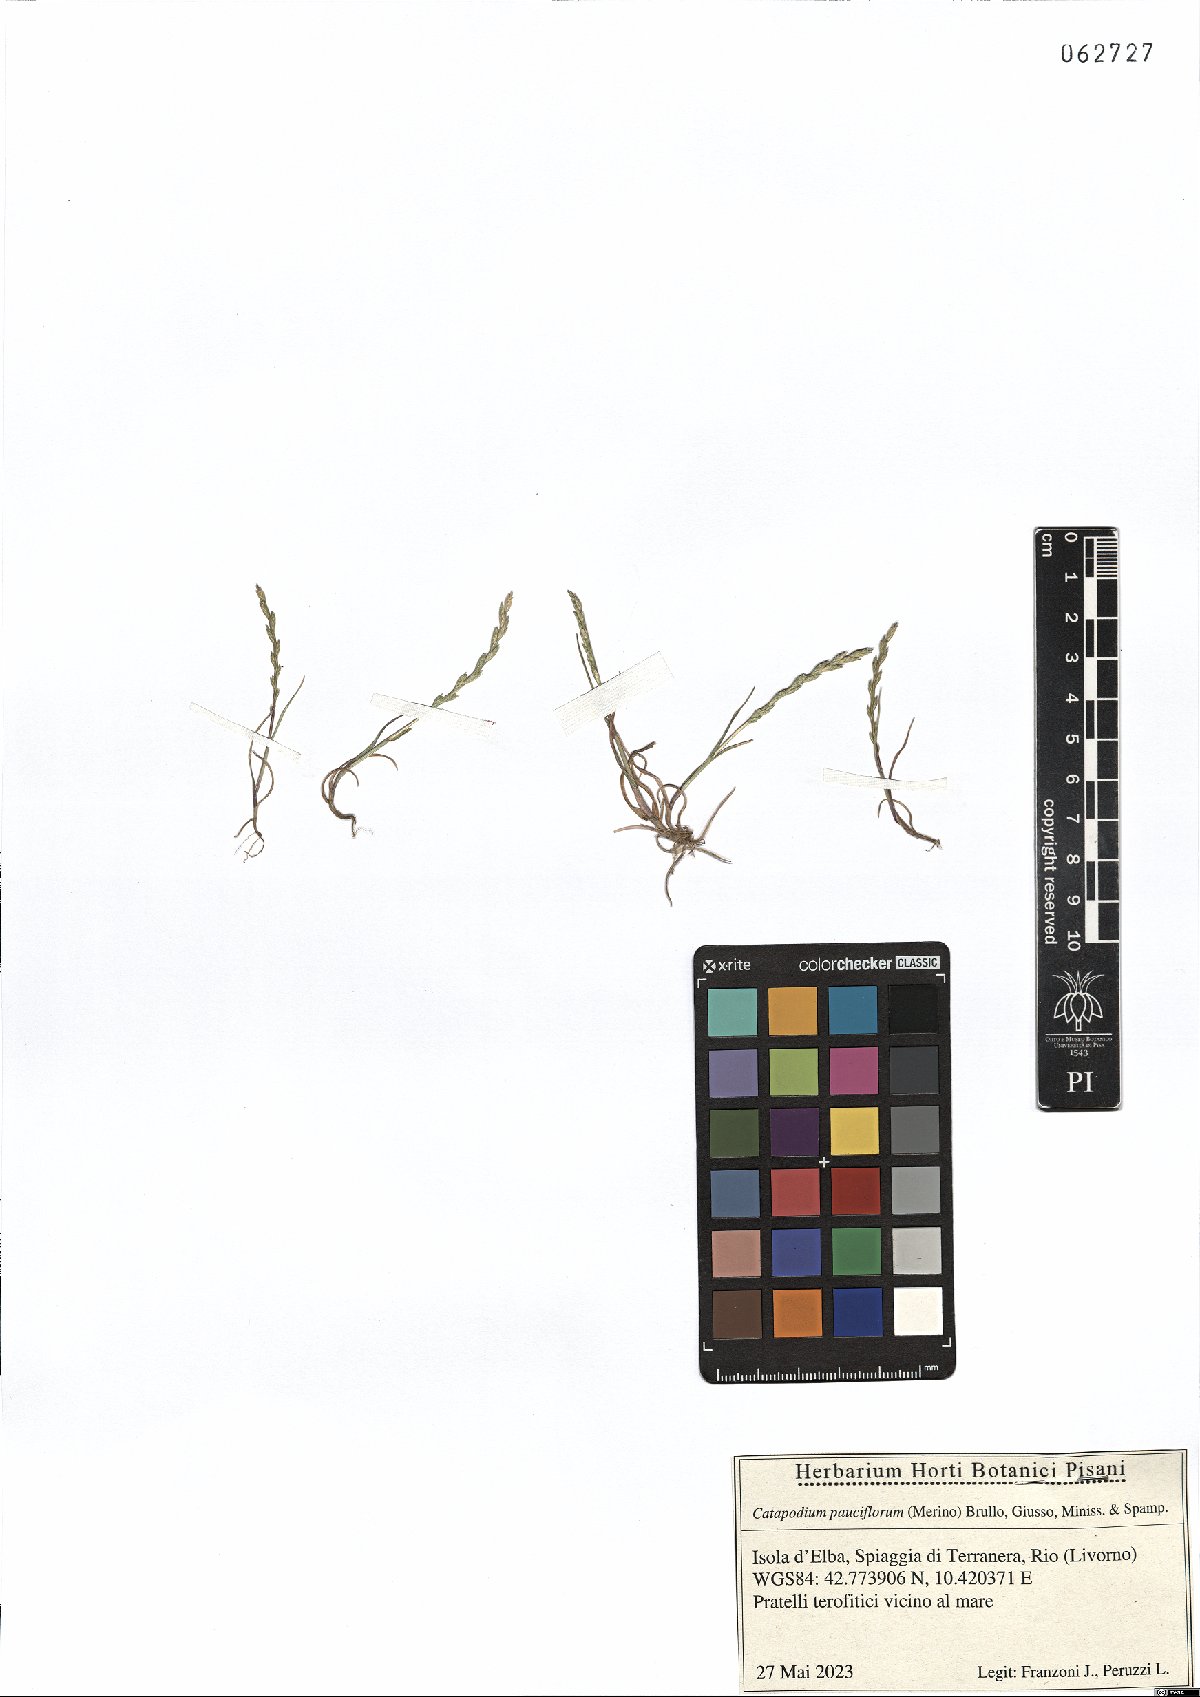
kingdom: Plantae
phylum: Tracheophyta
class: Liliopsida
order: Poales
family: Poaceae
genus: Catapodium
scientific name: Catapodium pauciflorum
